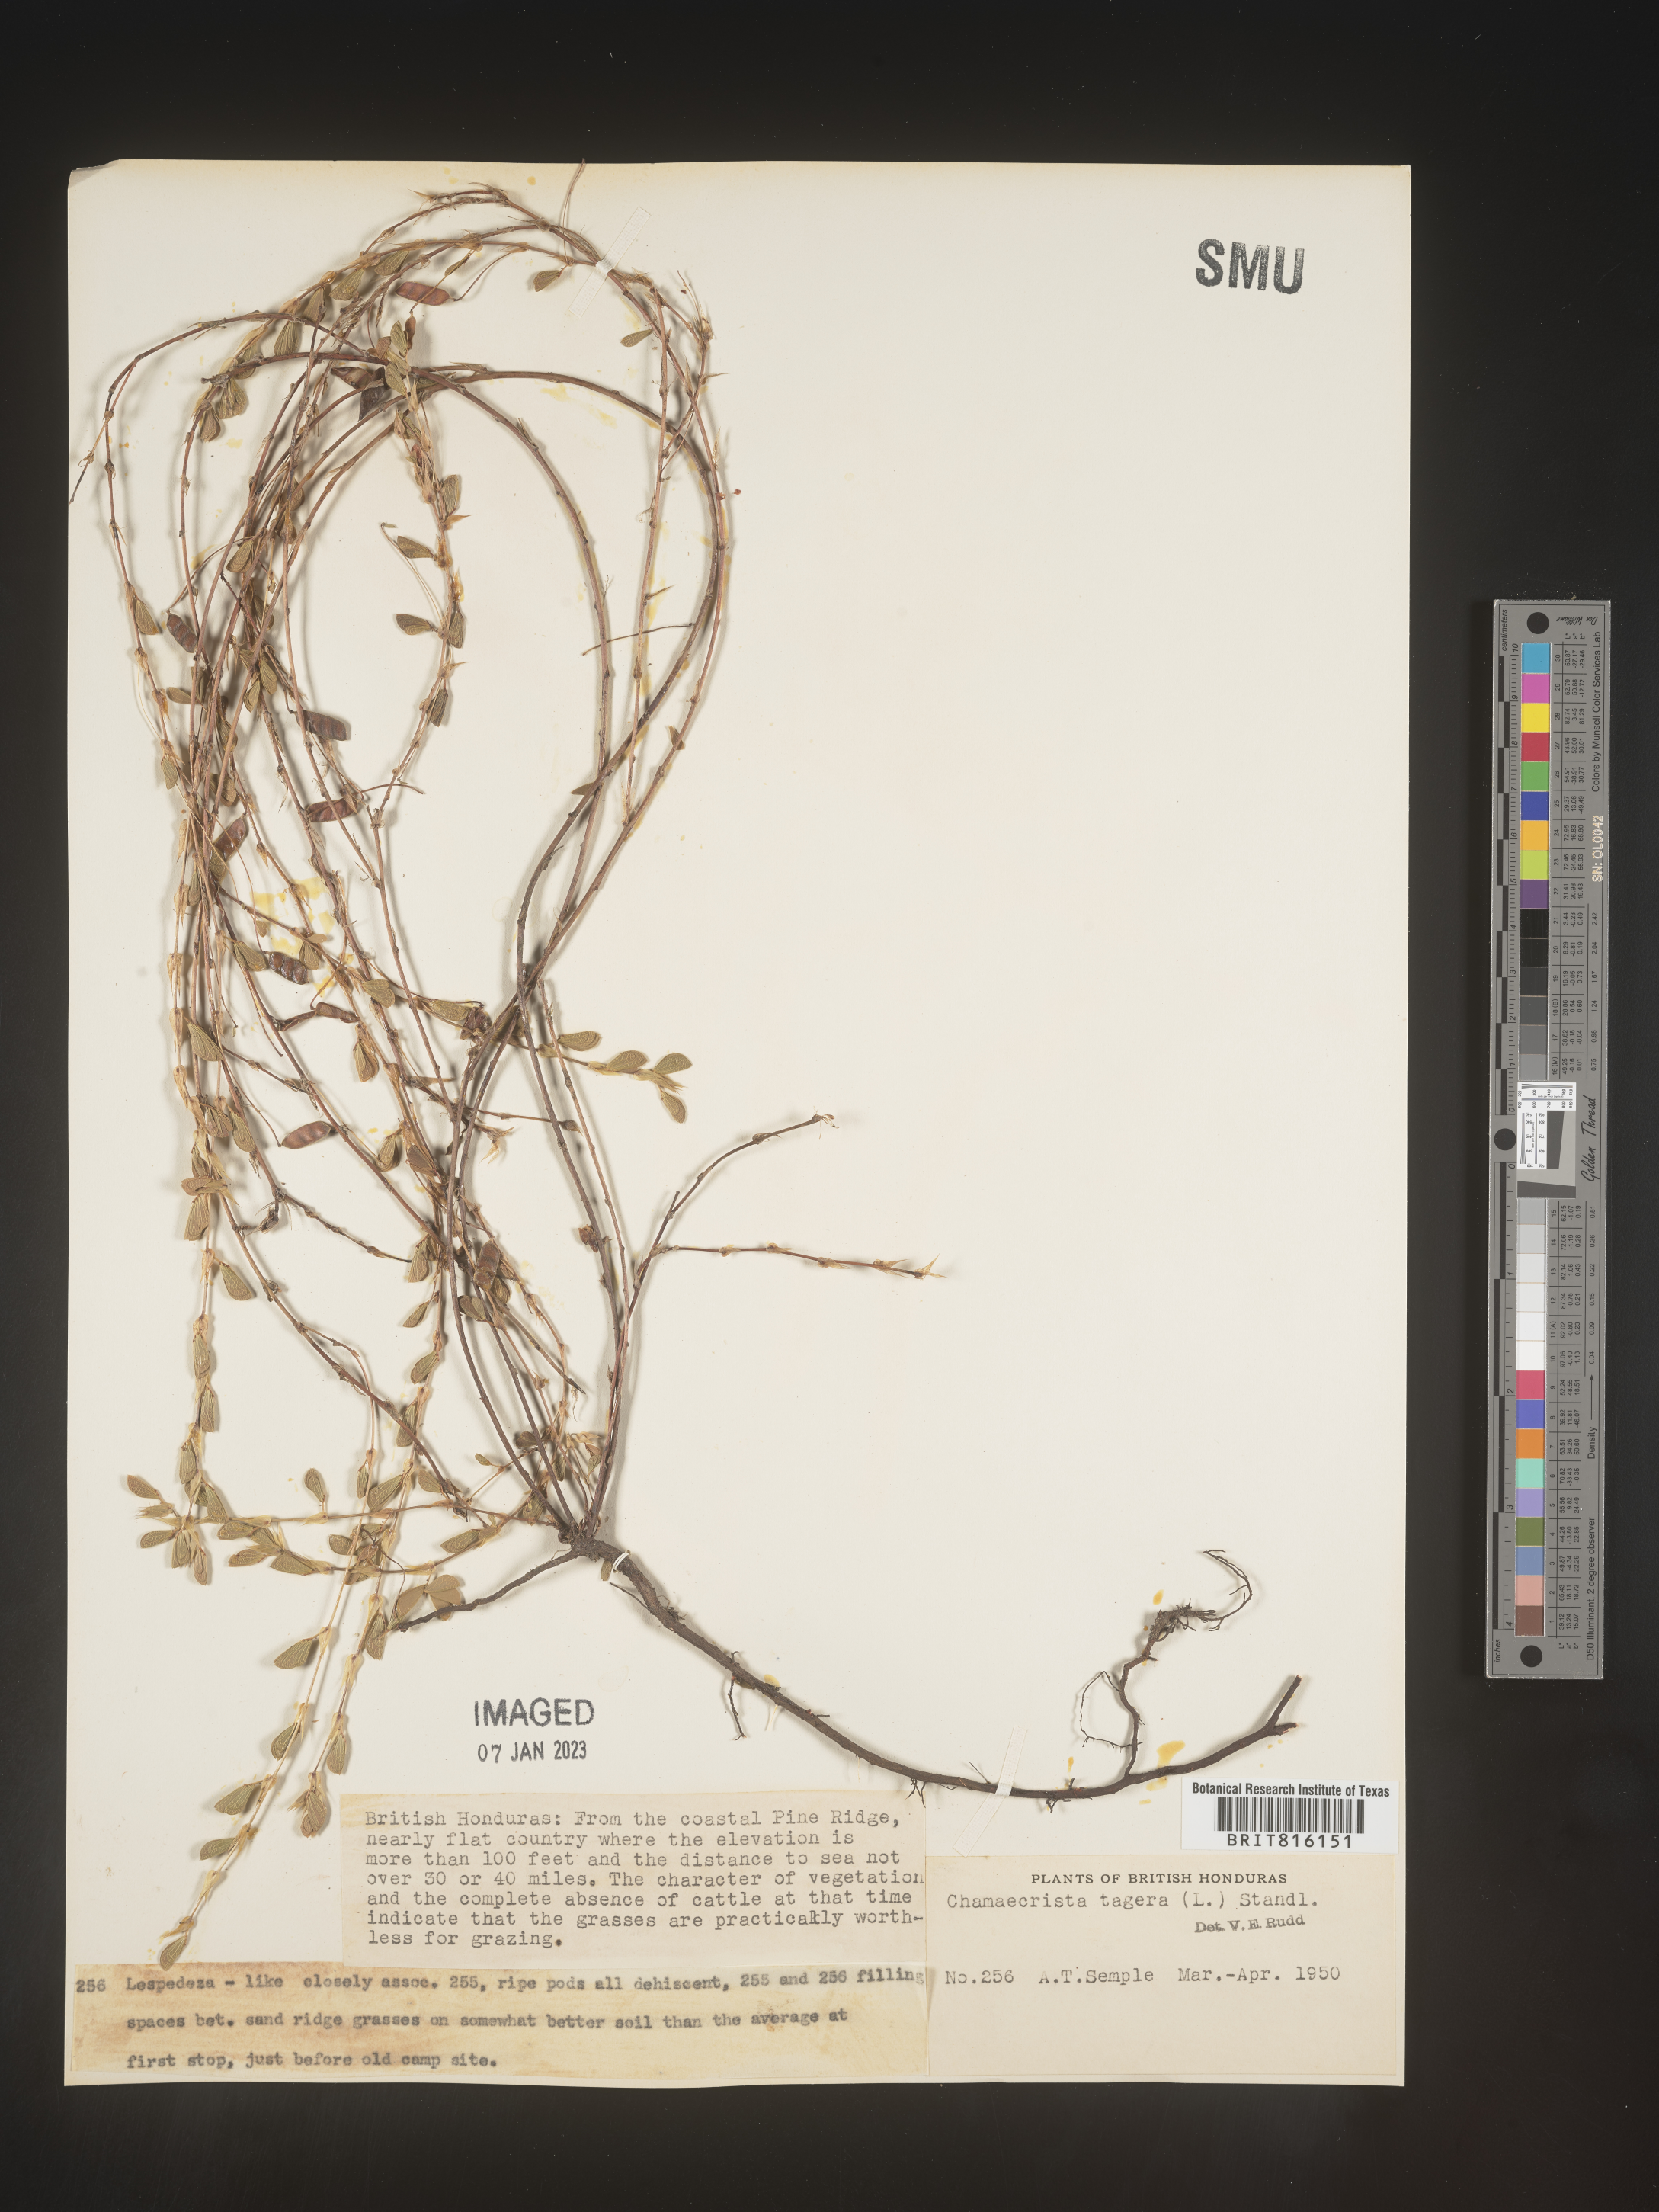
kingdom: Plantae
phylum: Tracheophyta
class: Magnoliopsida
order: Fabales
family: Fabaceae
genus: Chamaecrista
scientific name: Chamaecrista
